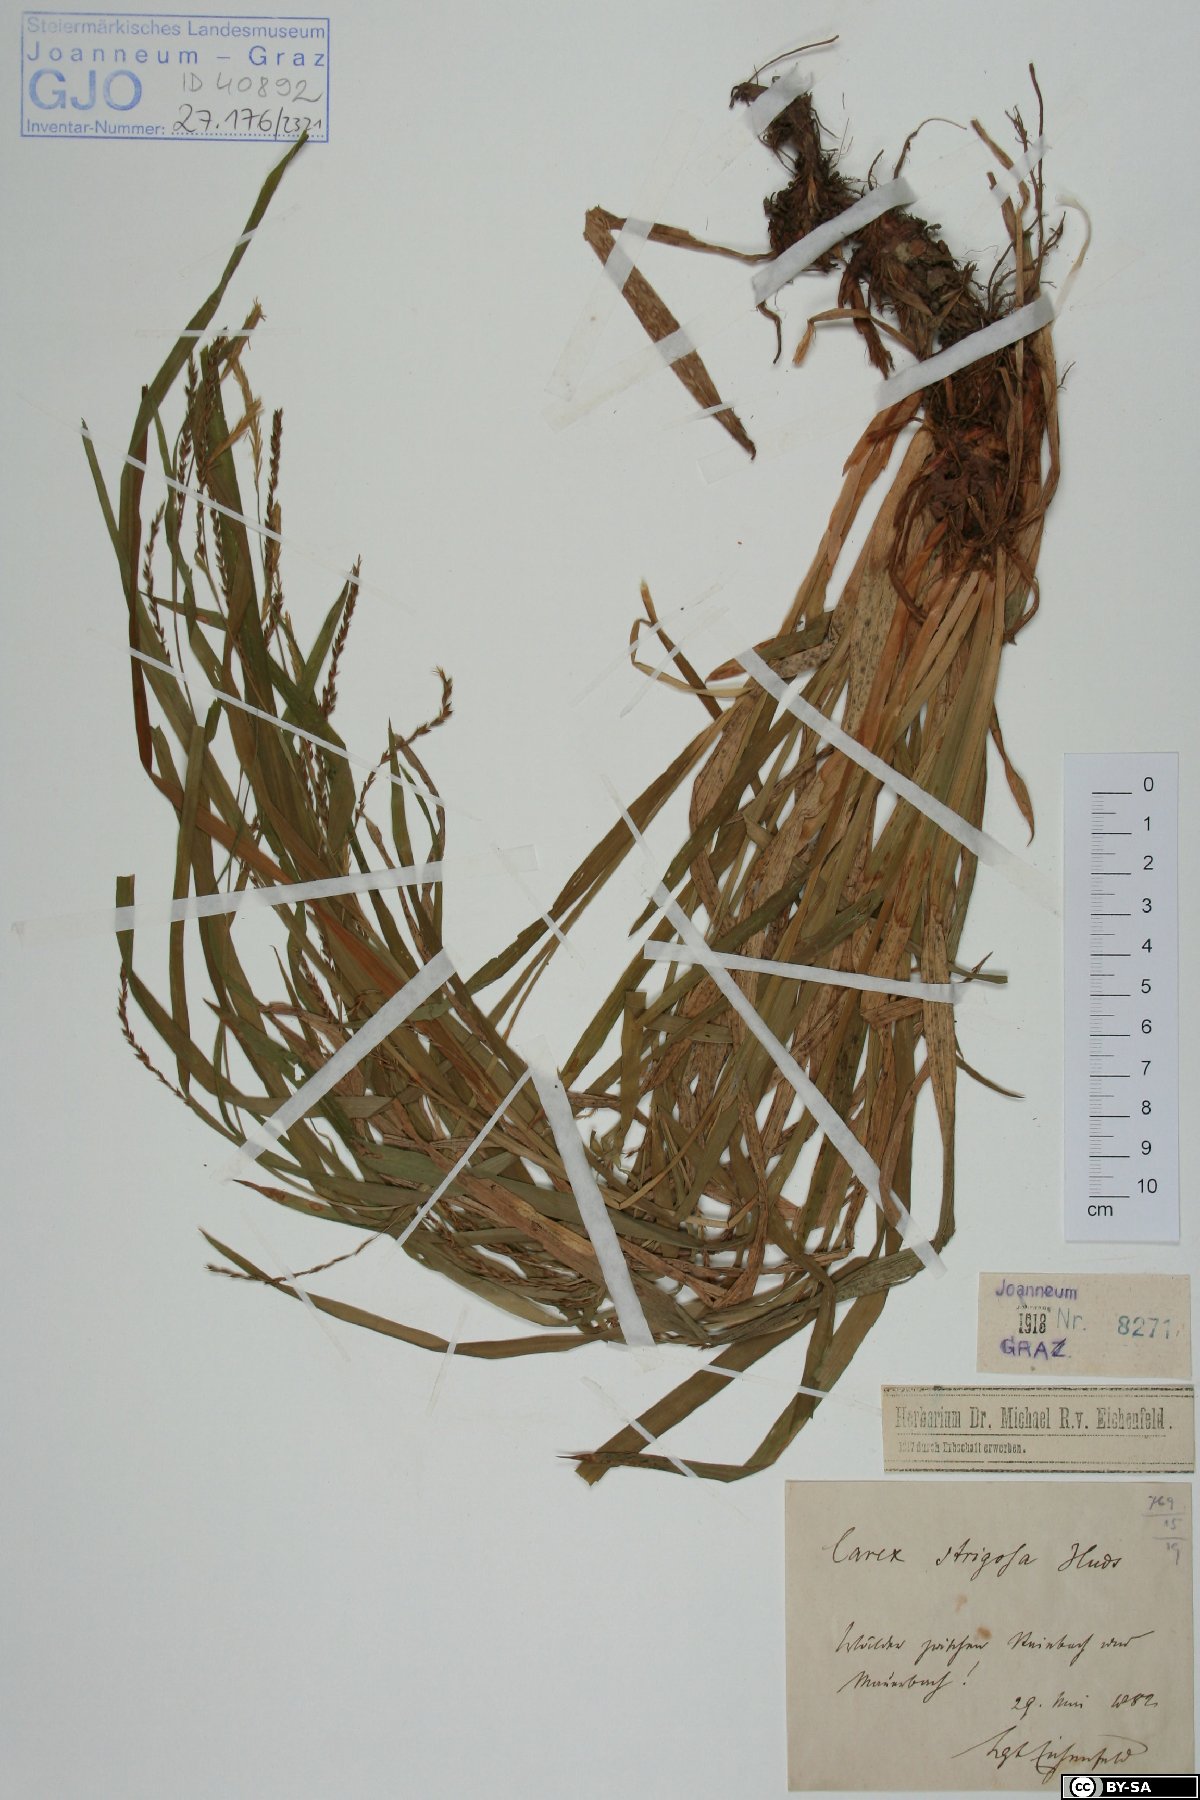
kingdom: Plantae
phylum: Tracheophyta
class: Liliopsida
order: Poales
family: Cyperaceae
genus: Carex
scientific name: Carex strigosa
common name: Thin-spiked wood-sedge
